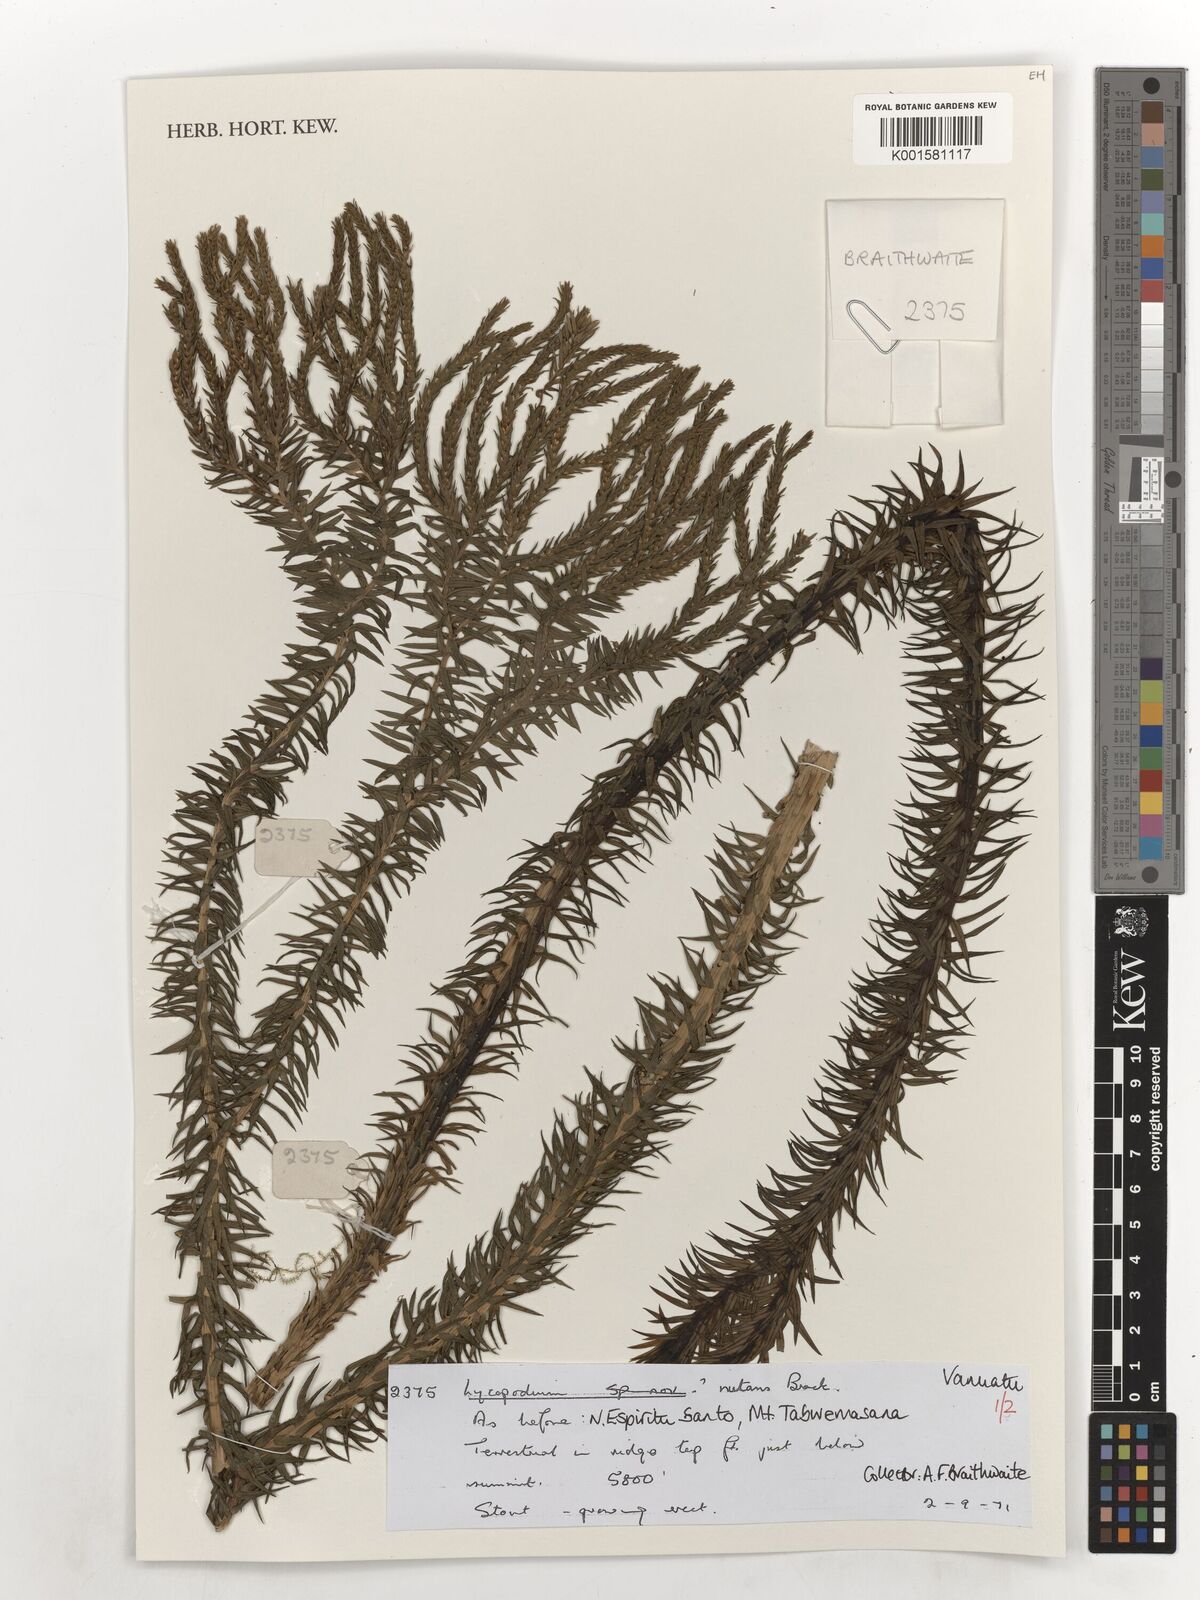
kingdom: Plantae
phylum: Tracheophyta
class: Lycopodiopsida
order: Lycopodiales
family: Lycopodiaceae
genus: Phlegmariurus
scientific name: Phlegmariurus nutans
